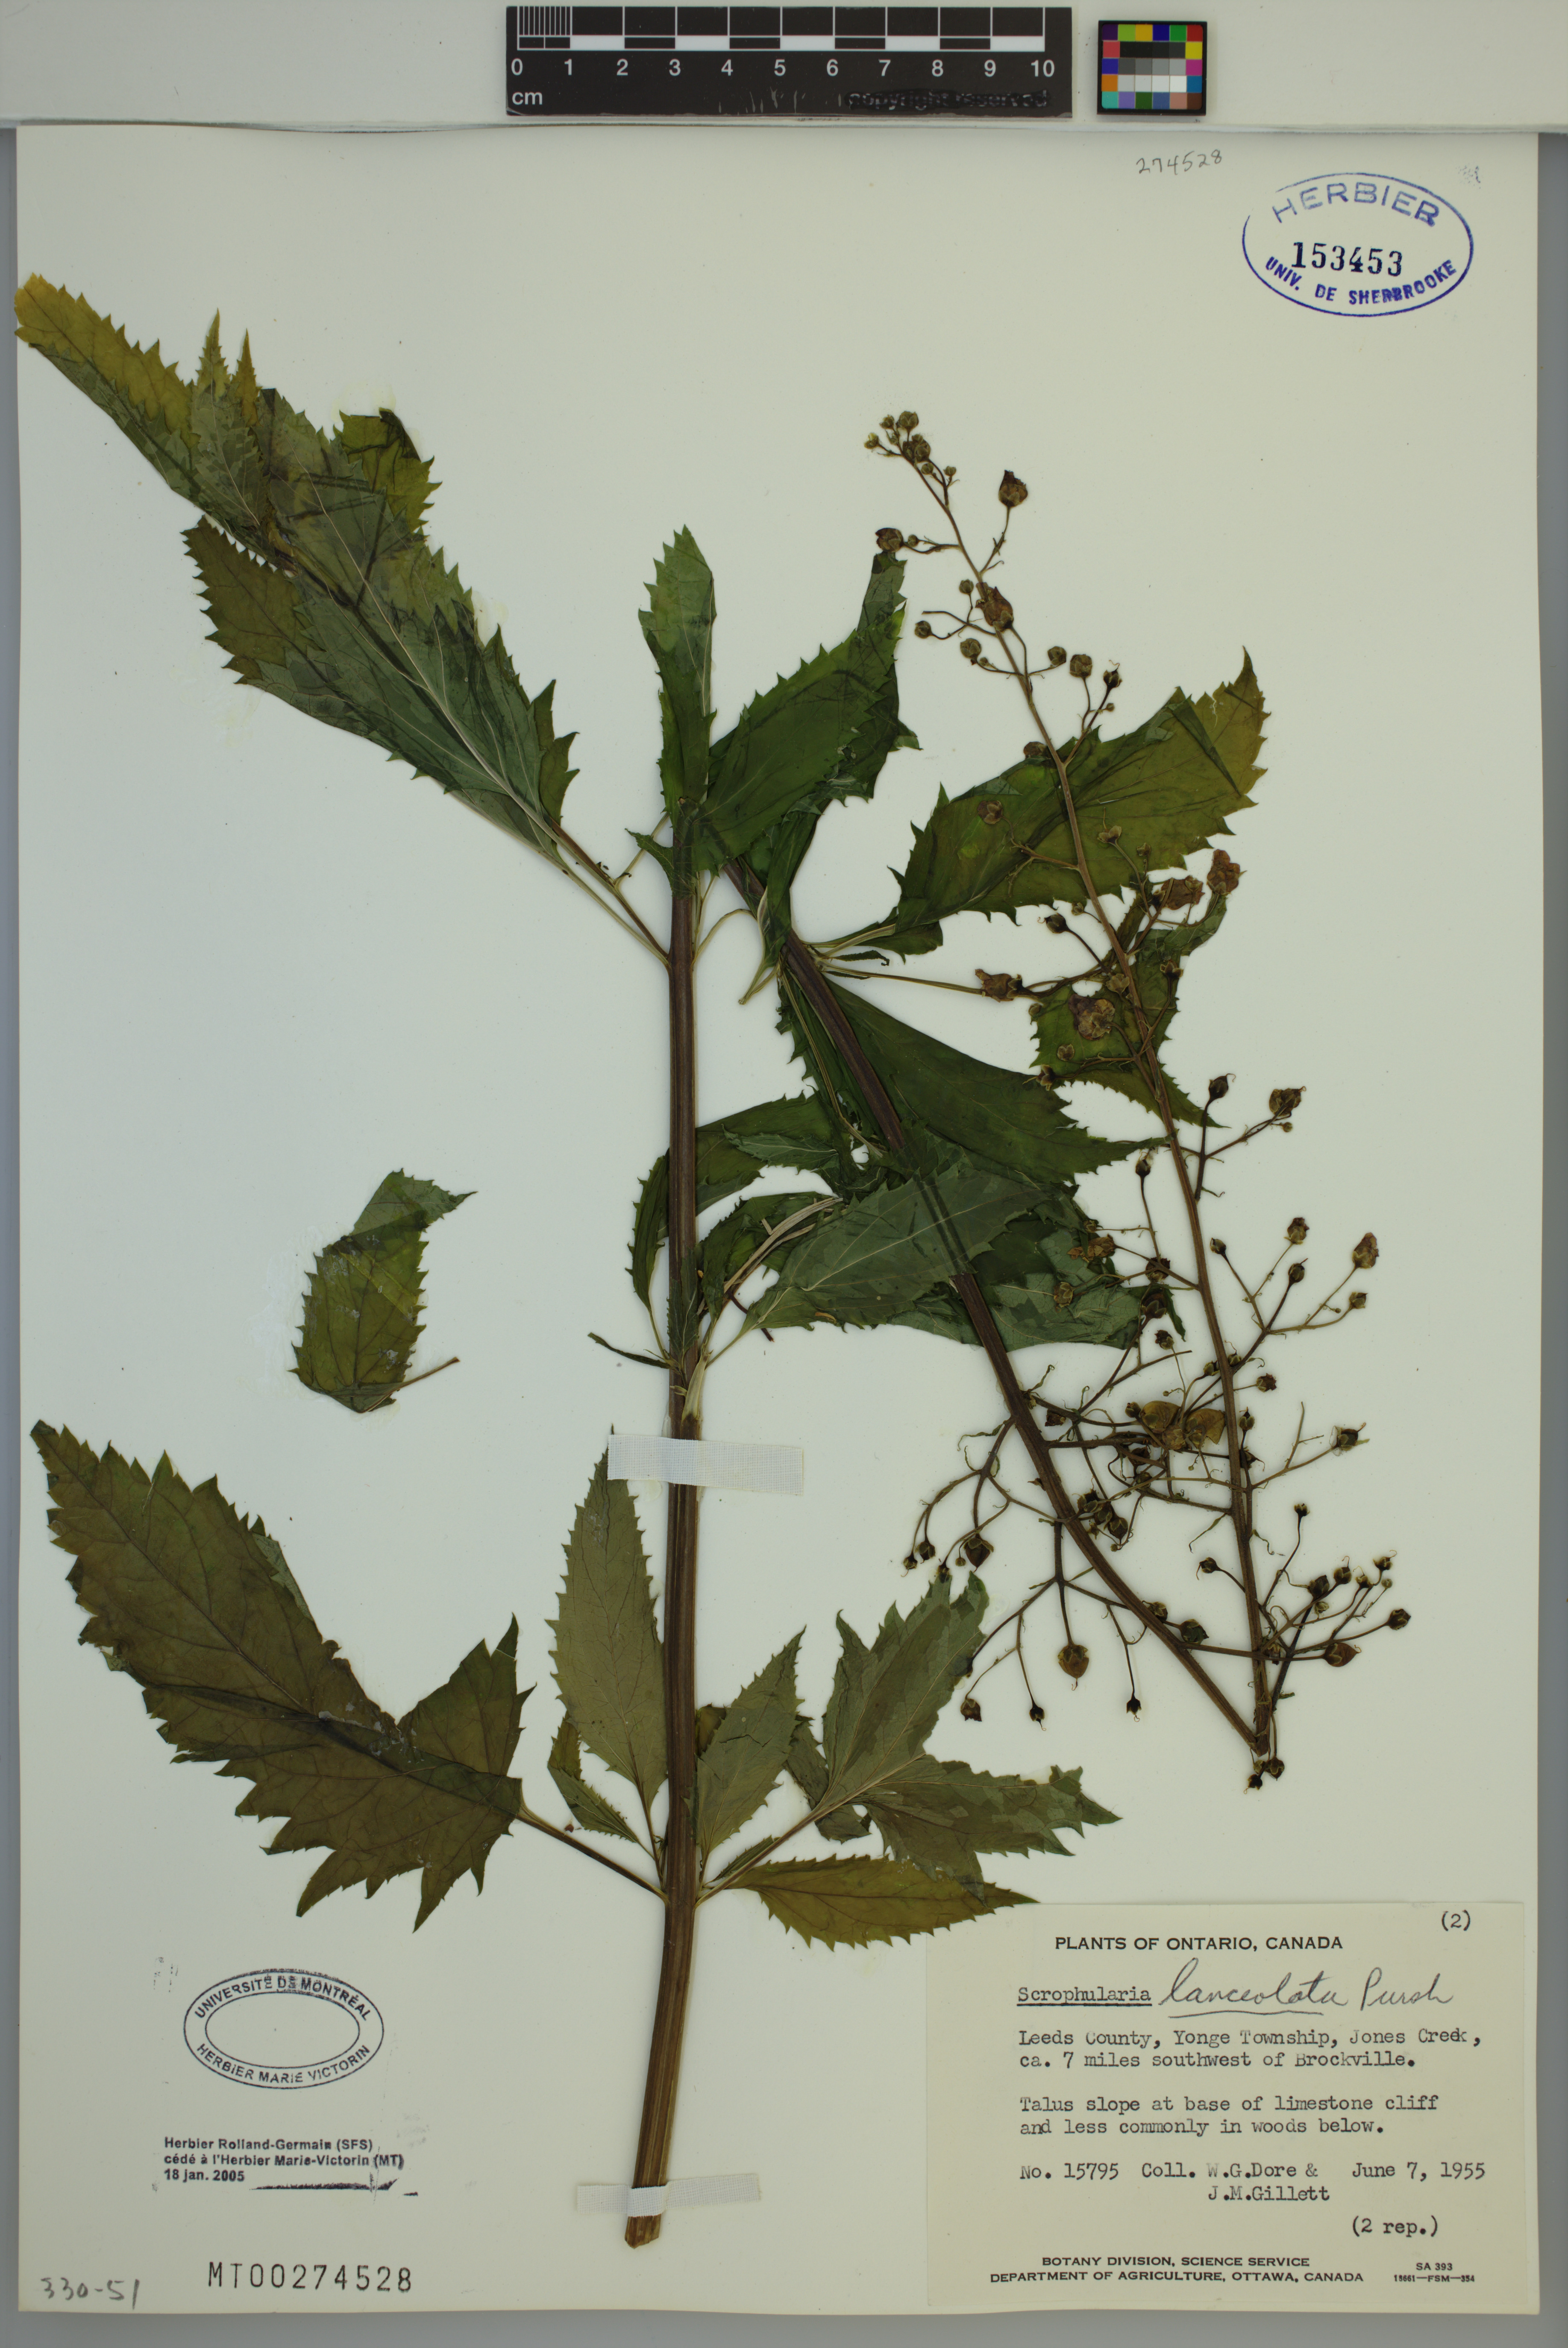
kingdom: Plantae
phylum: Tracheophyta
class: Magnoliopsida
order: Lamiales
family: Scrophulariaceae
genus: Scrophularia
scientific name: Scrophularia lanceolata
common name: American figwort
